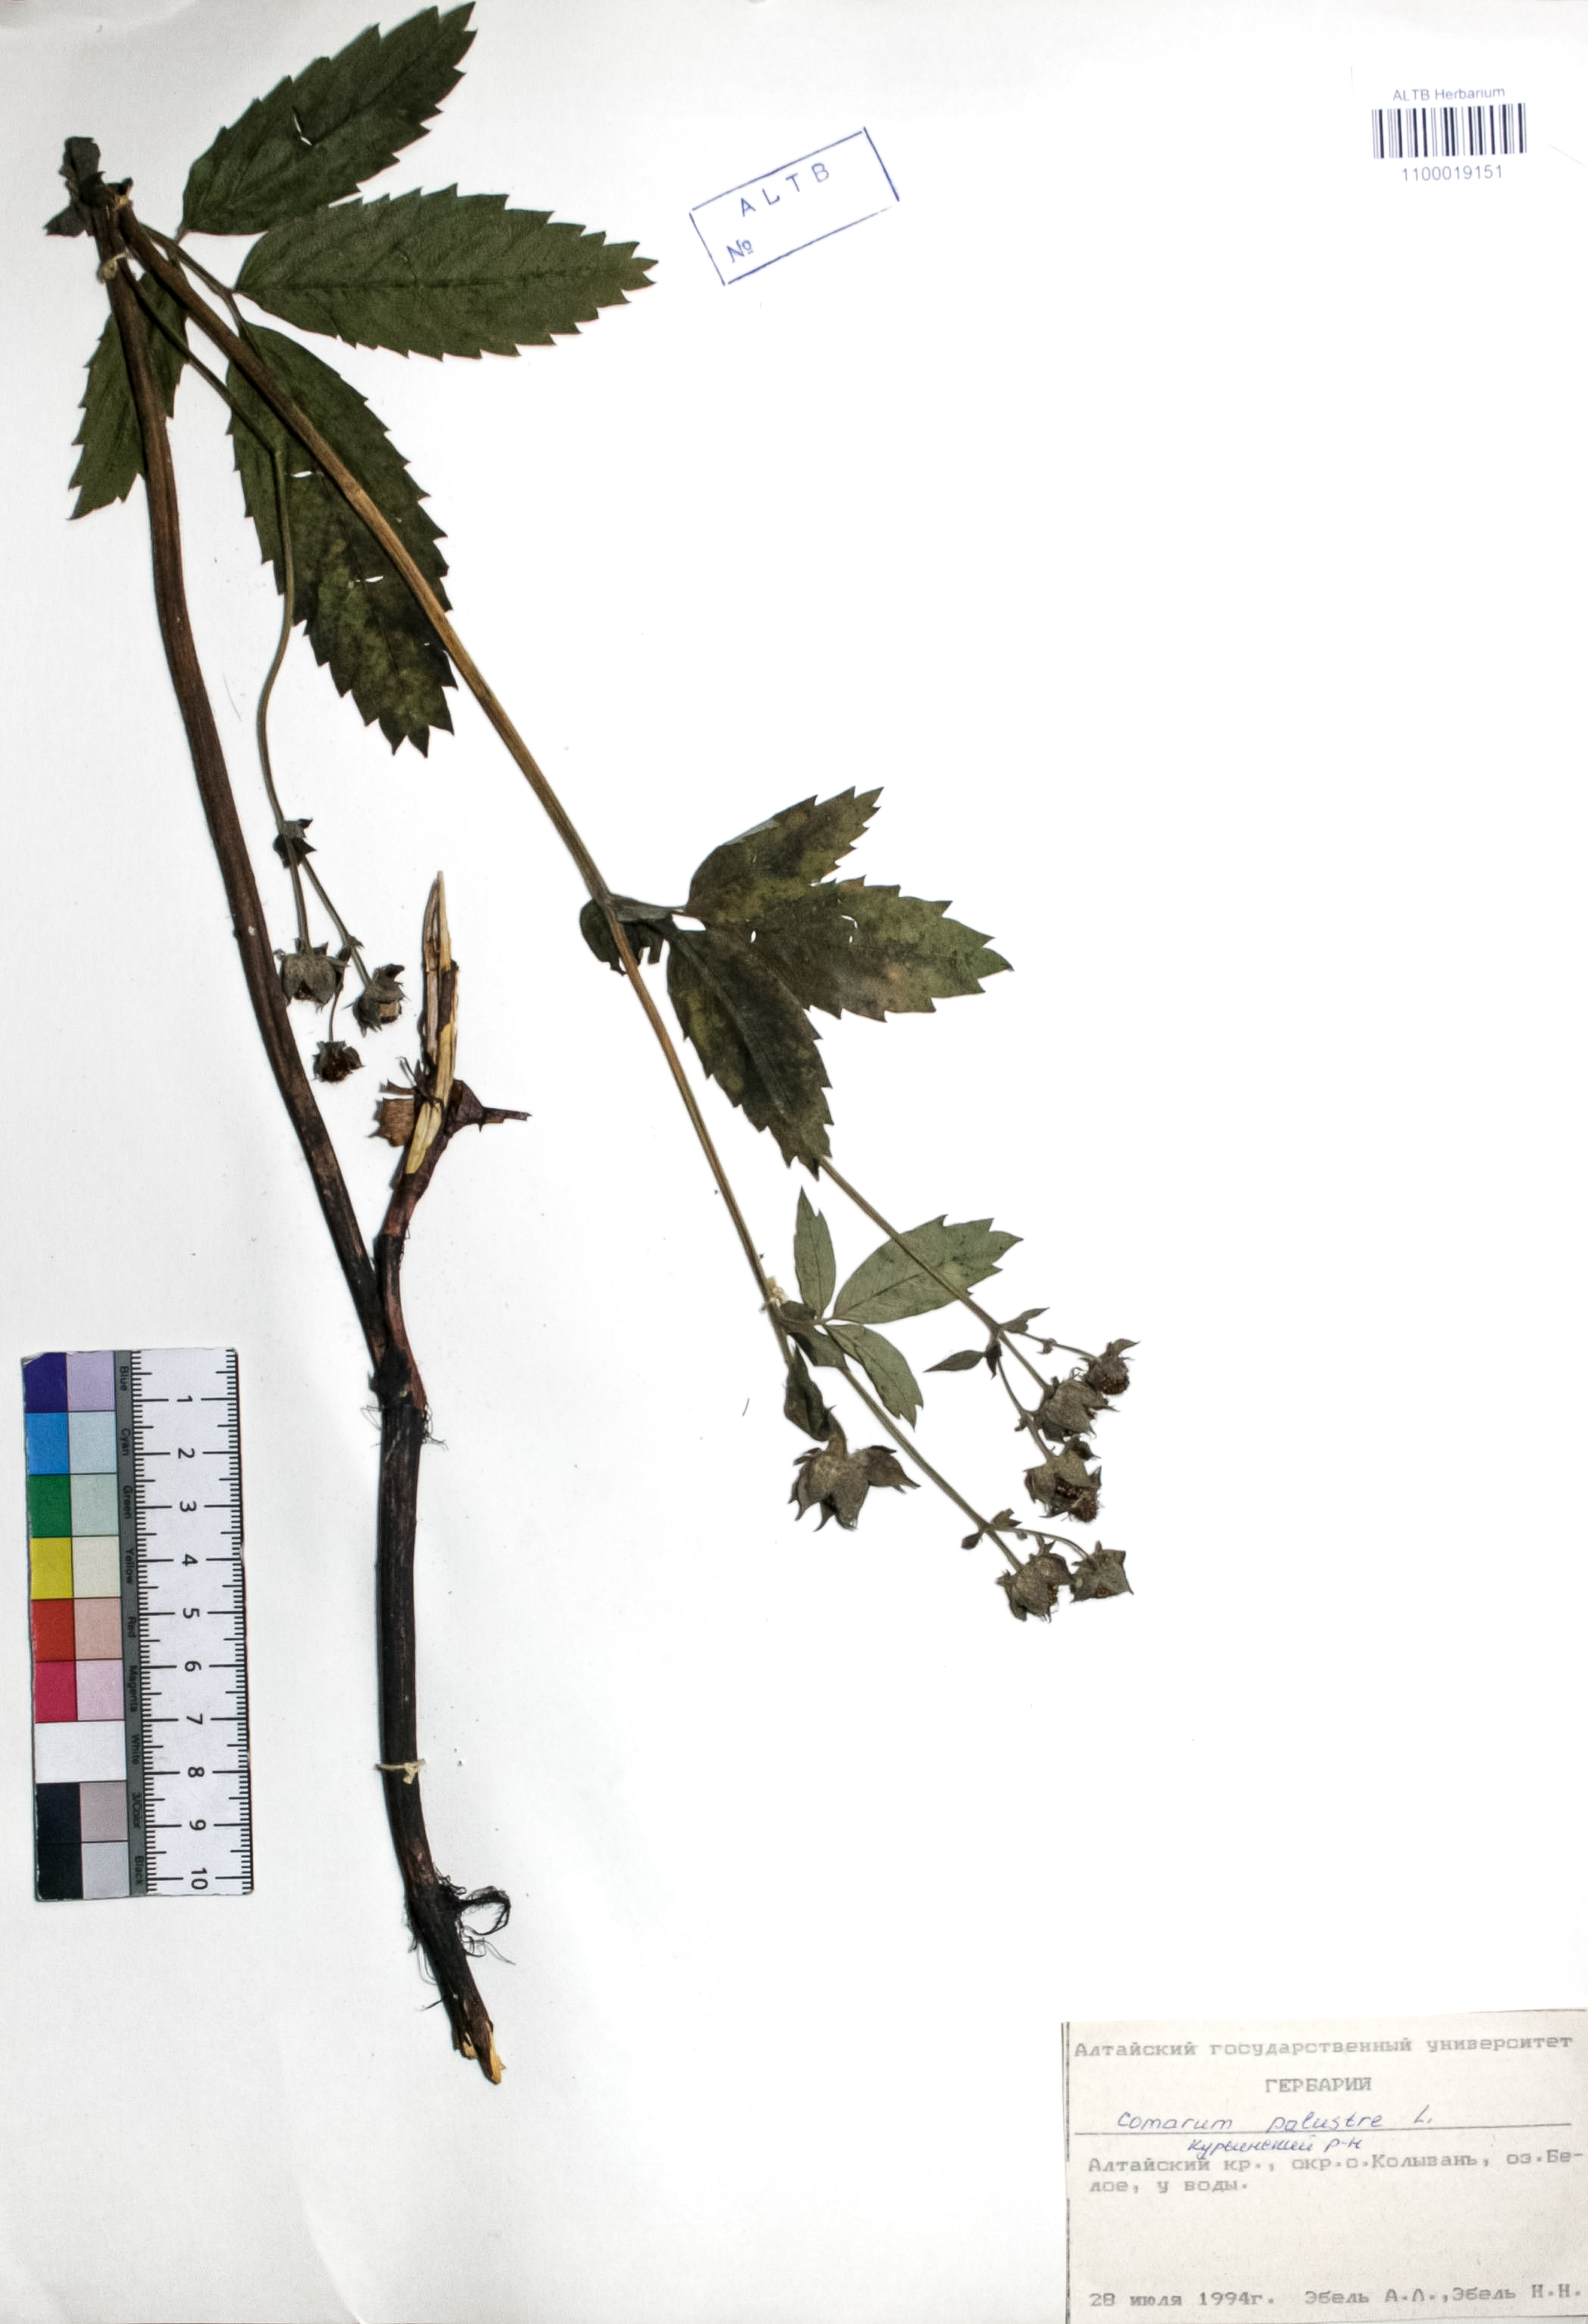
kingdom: Plantae
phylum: Tracheophyta
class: Magnoliopsida
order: Rosales
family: Rosaceae
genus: Comarum
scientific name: Comarum palustre
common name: Marsh cinquefoil
